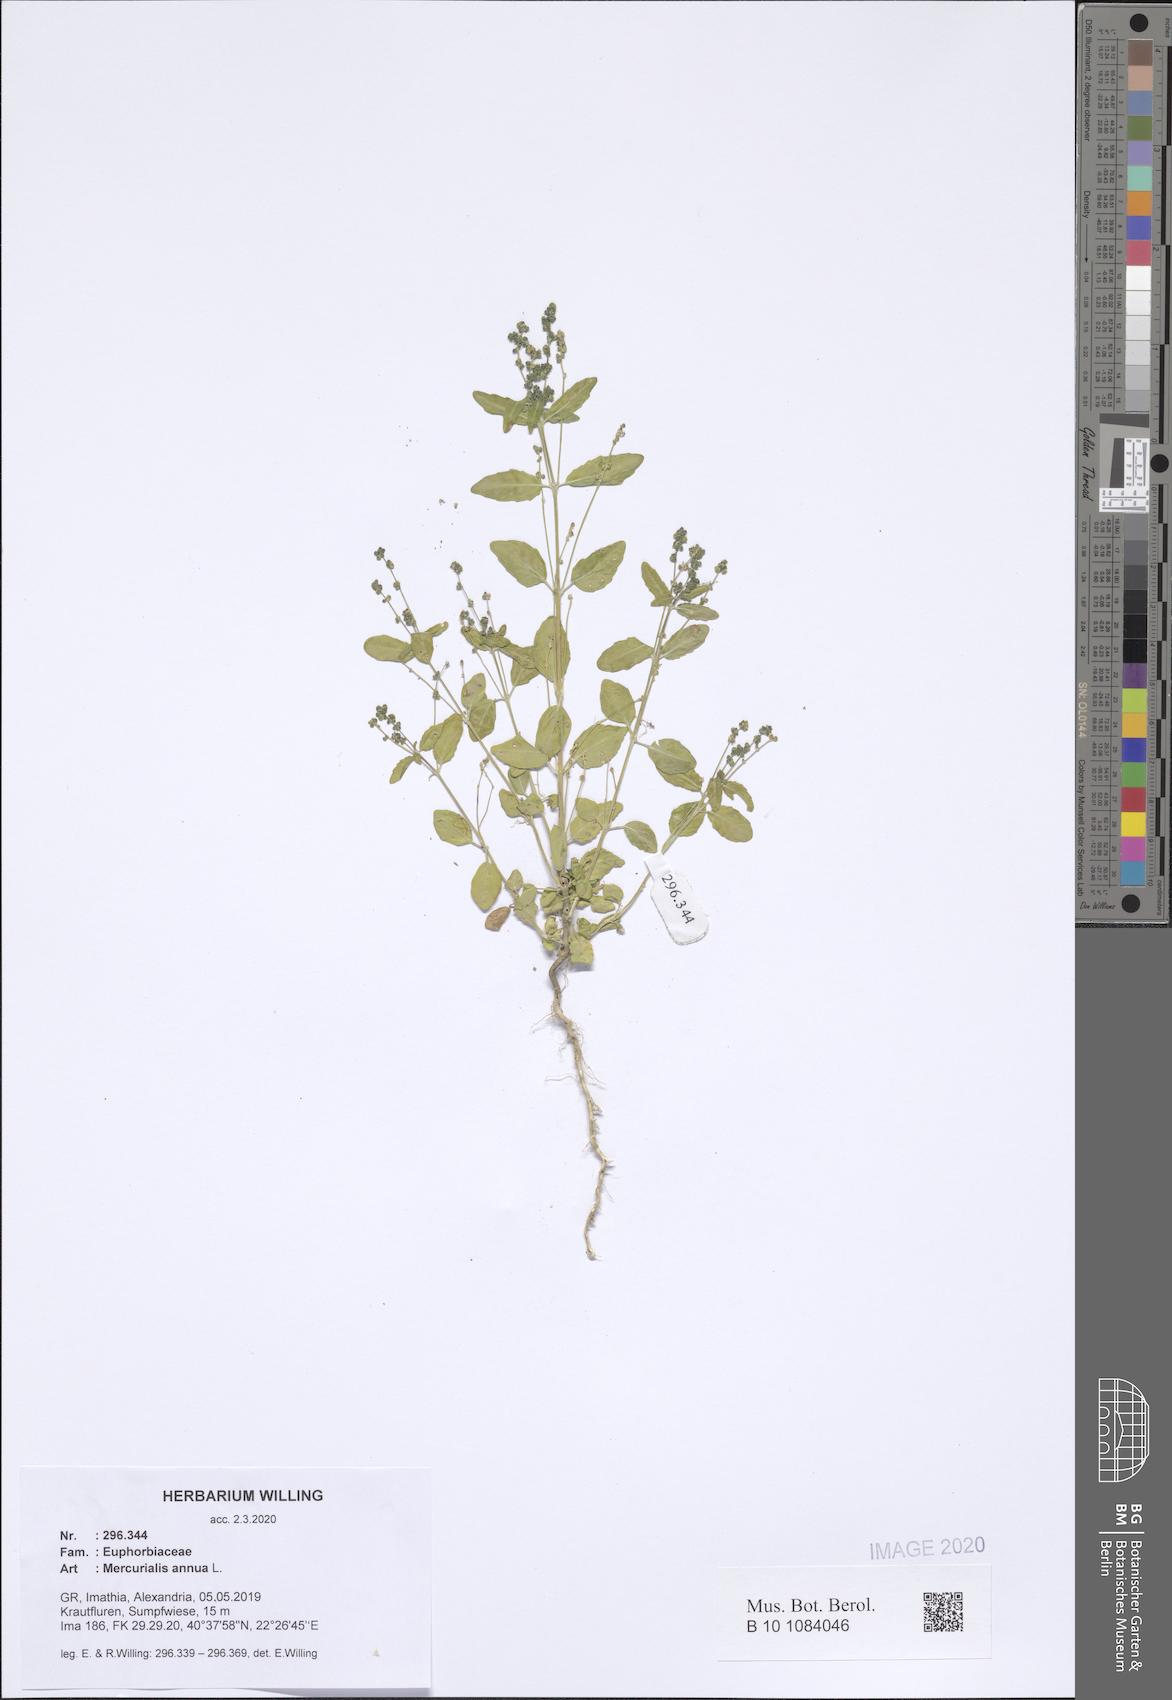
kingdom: Plantae
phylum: Tracheophyta
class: Magnoliopsida
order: Malpighiales
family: Euphorbiaceae
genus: Mercurialis
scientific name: Mercurialis annua
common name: Annual mercury
